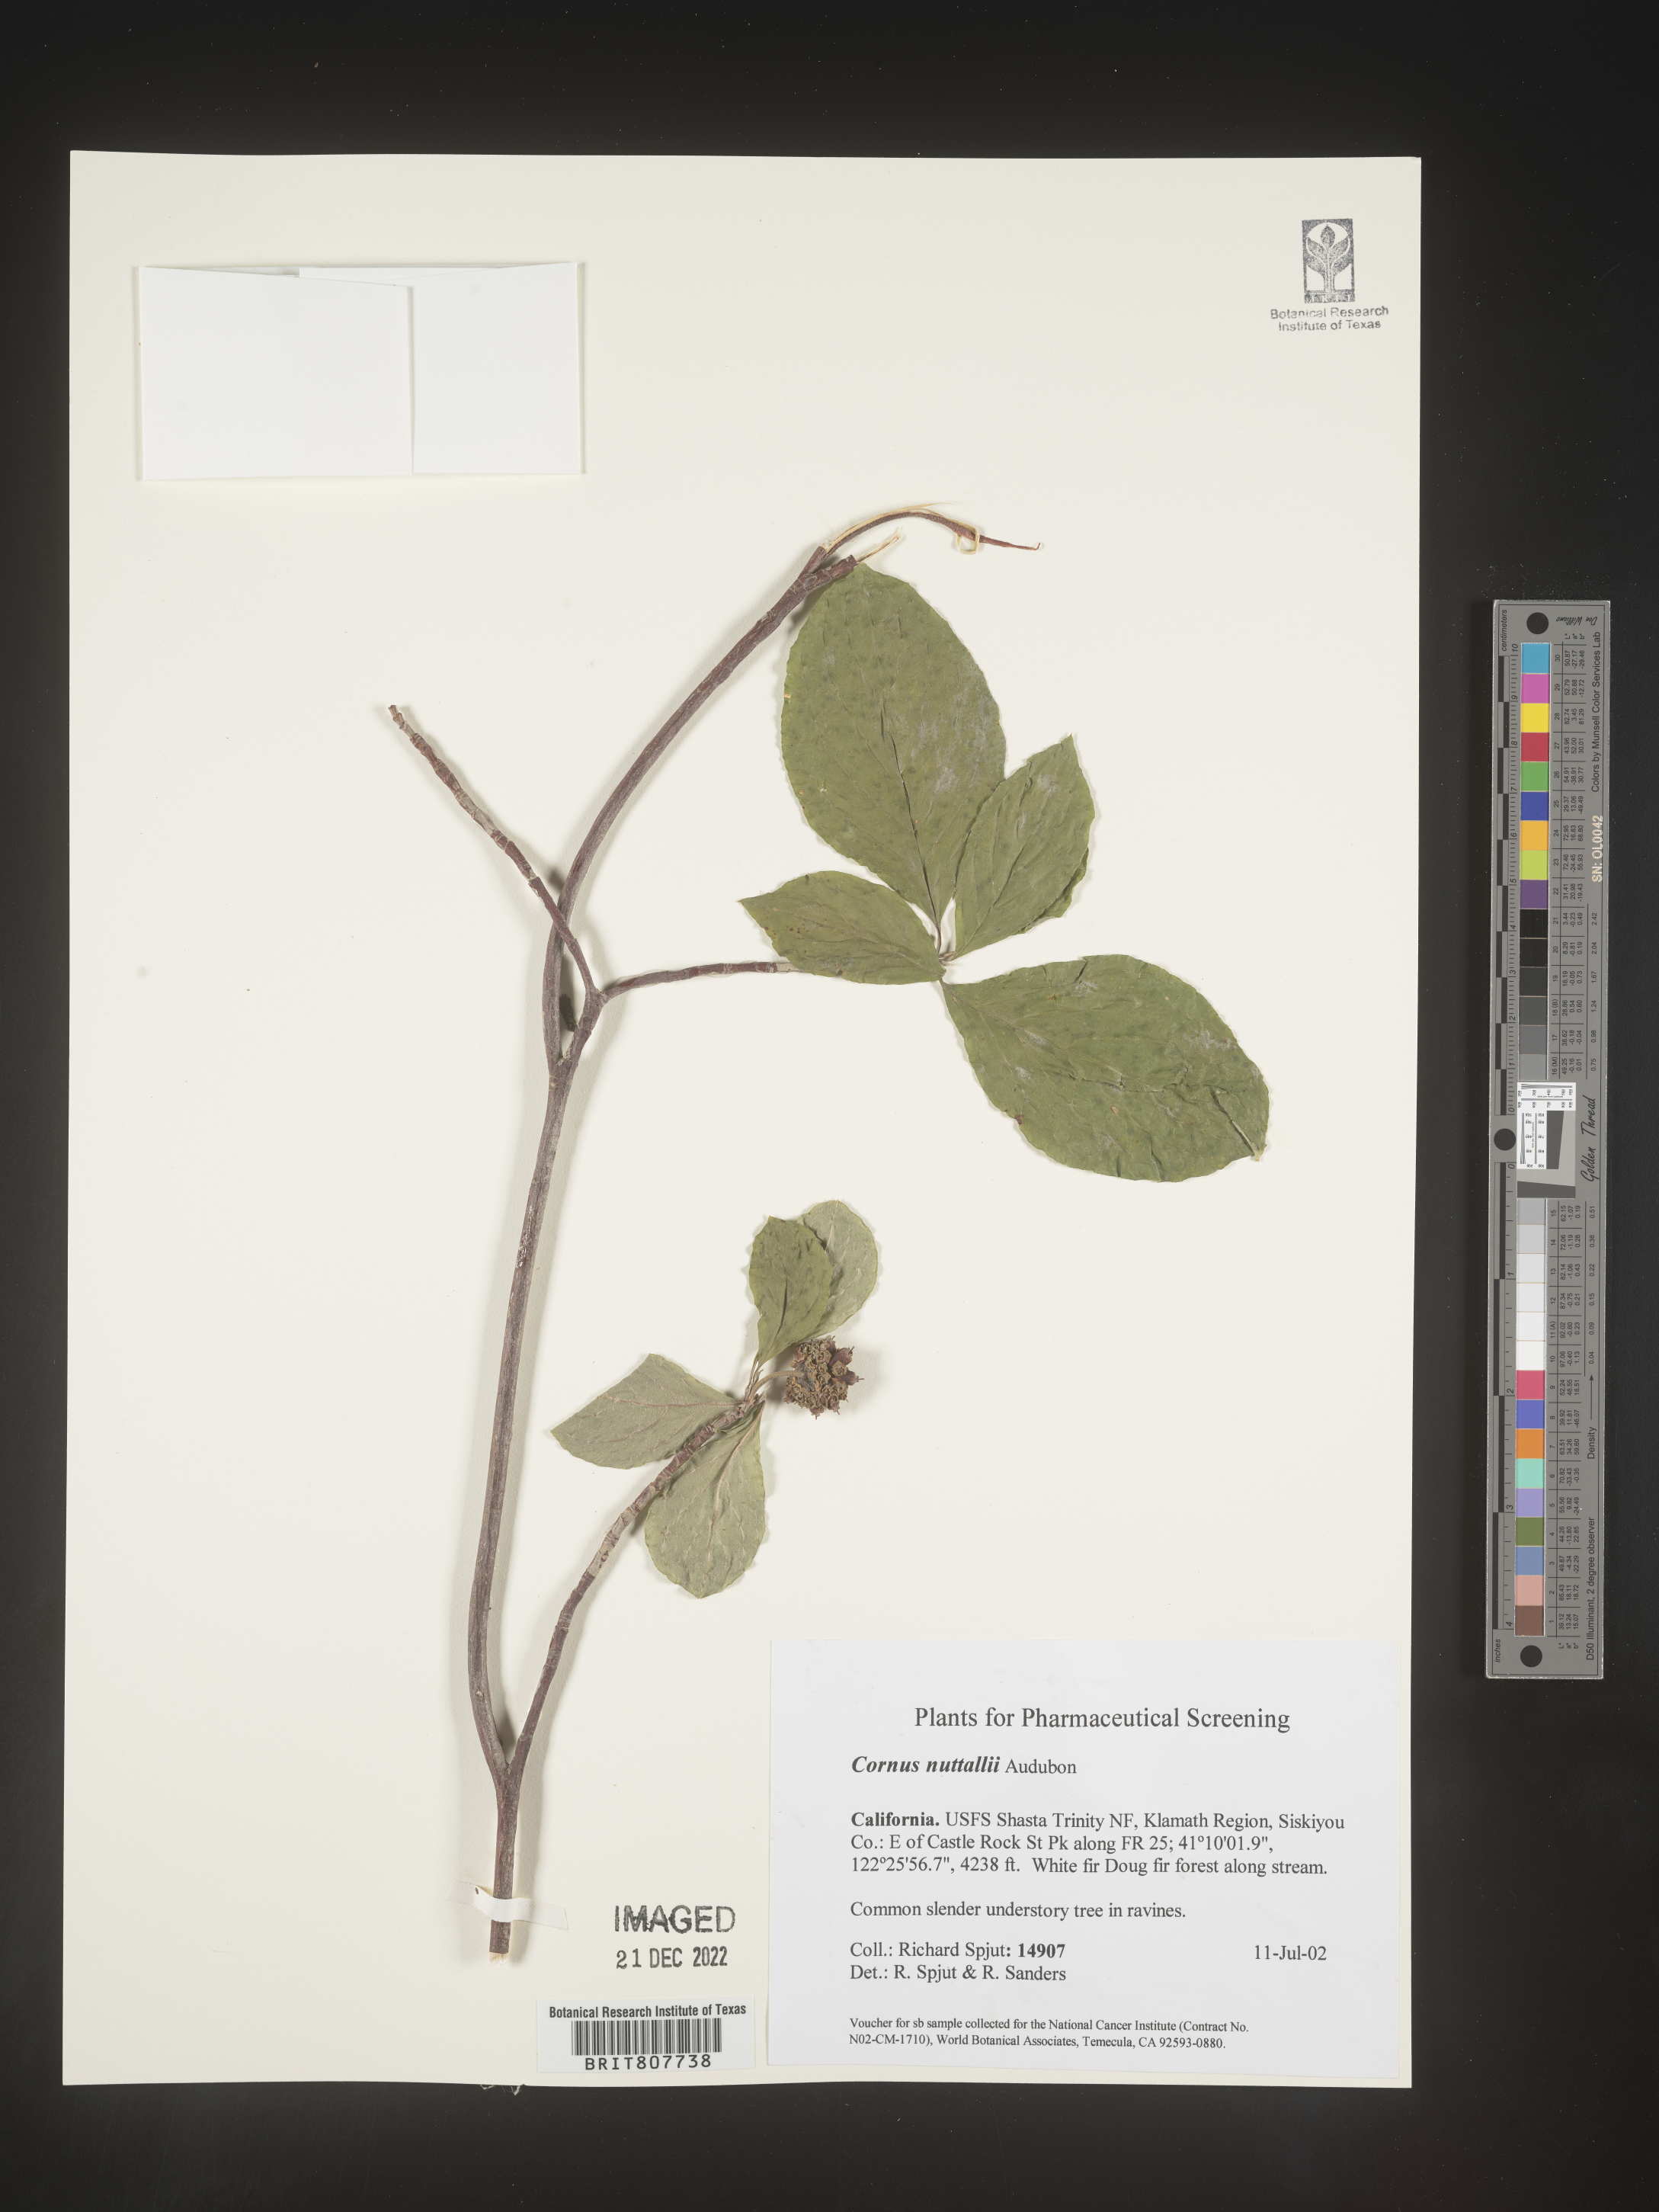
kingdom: Plantae
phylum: Tracheophyta
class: Magnoliopsida
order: Cornales
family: Cornaceae
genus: Cornus
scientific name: Cornus nuttallii
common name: Pacific dogwood
